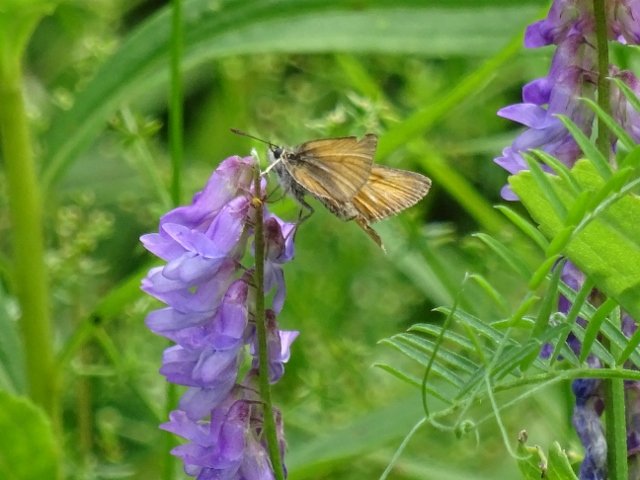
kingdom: Animalia
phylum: Arthropoda
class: Insecta
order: Lepidoptera
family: Hesperiidae
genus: Thymelicus
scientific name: Thymelicus lineola
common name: European Skipper
